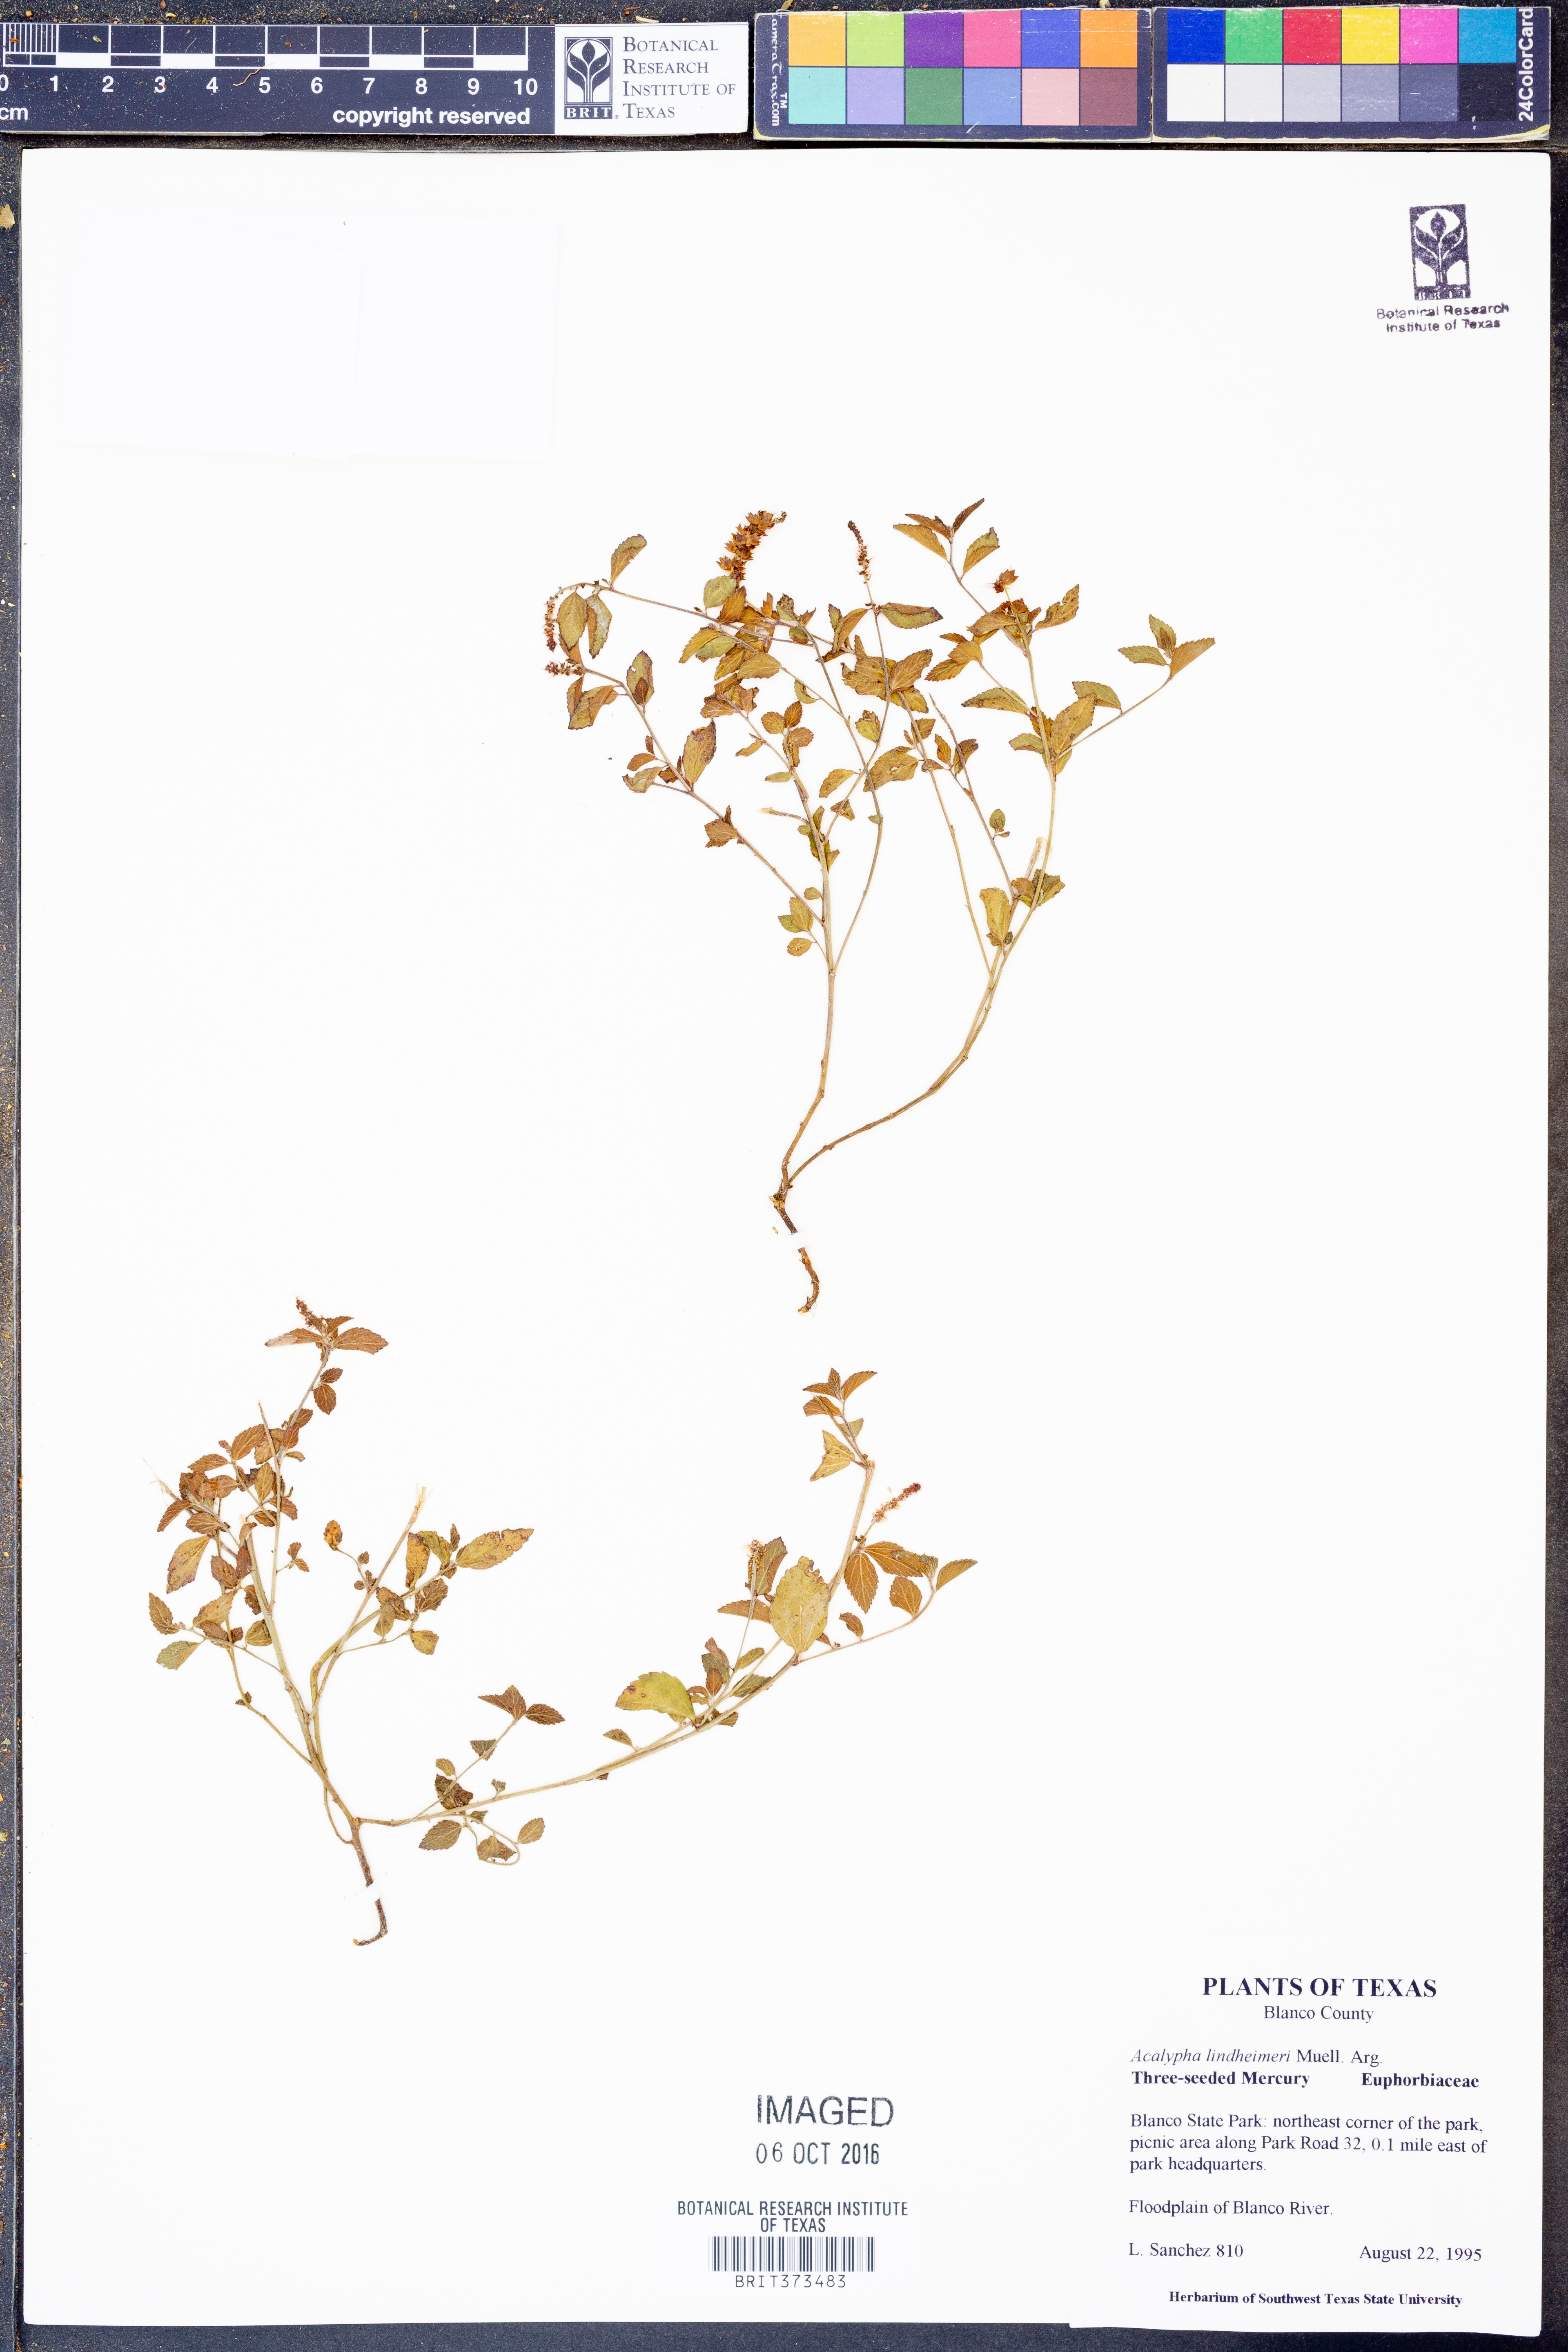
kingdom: Plantae
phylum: Tracheophyta
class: Magnoliopsida
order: Malpighiales
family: Euphorbiaceae
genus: Acalypha
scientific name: Acalypha phleoides
